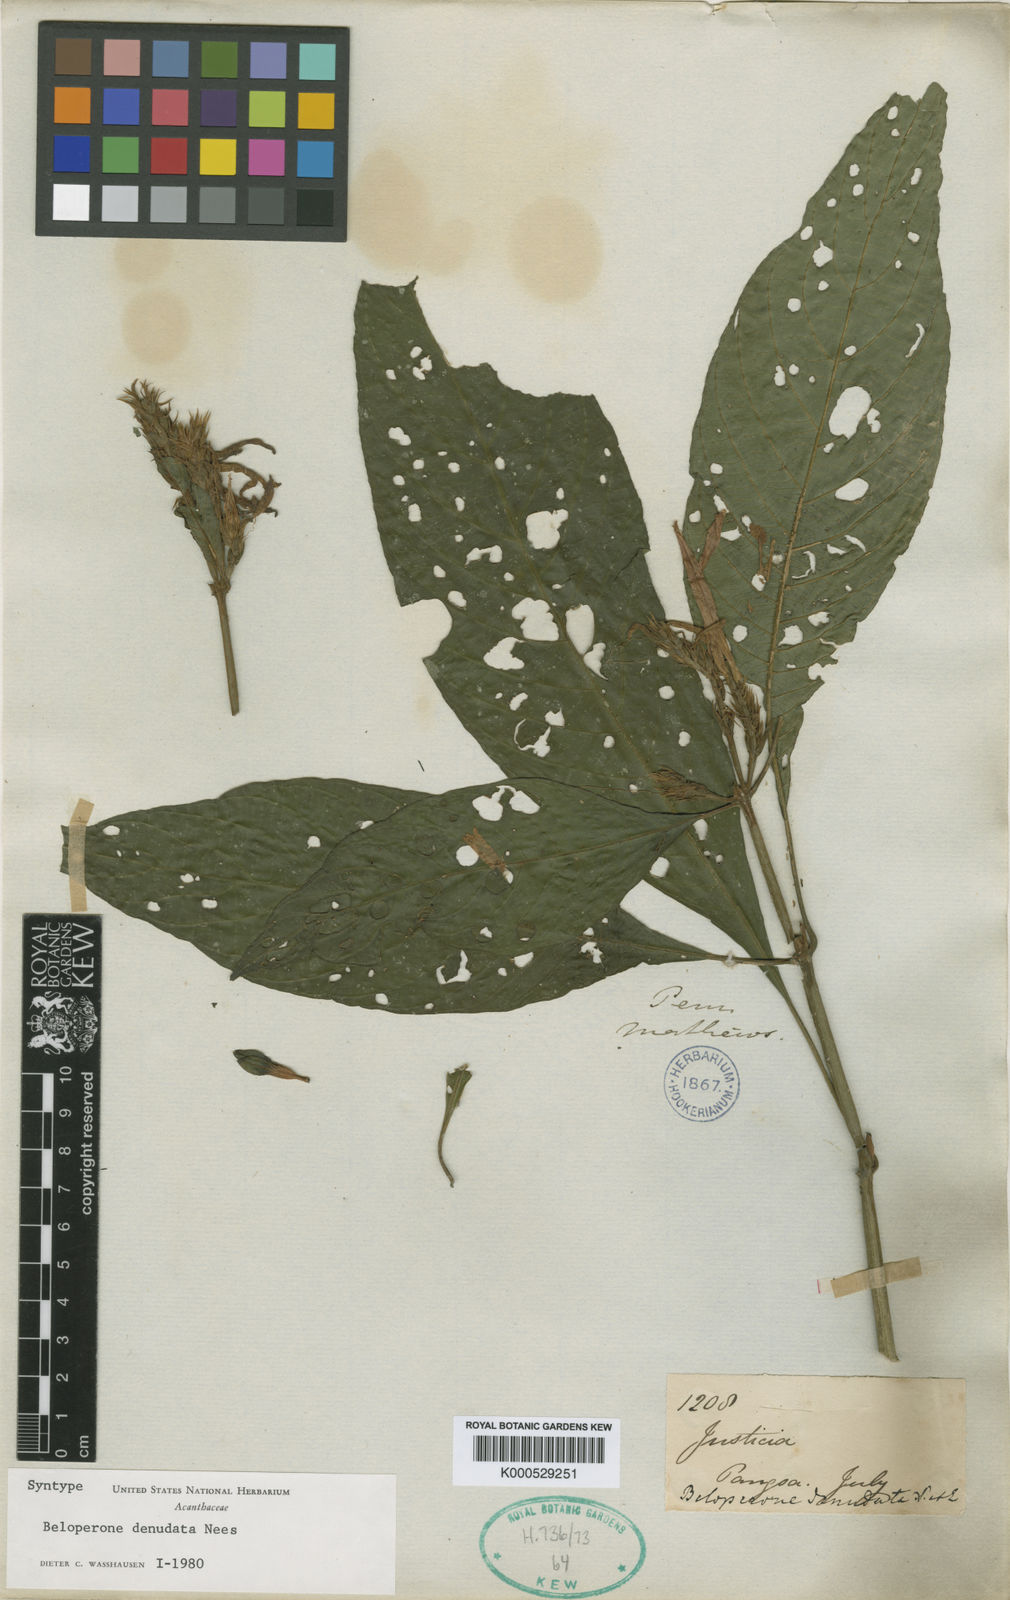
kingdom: Plantae
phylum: Tracheophyta
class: Magnoliopsida
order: Lamiales
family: Acanthaceae
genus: Justicia
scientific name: Justicia
